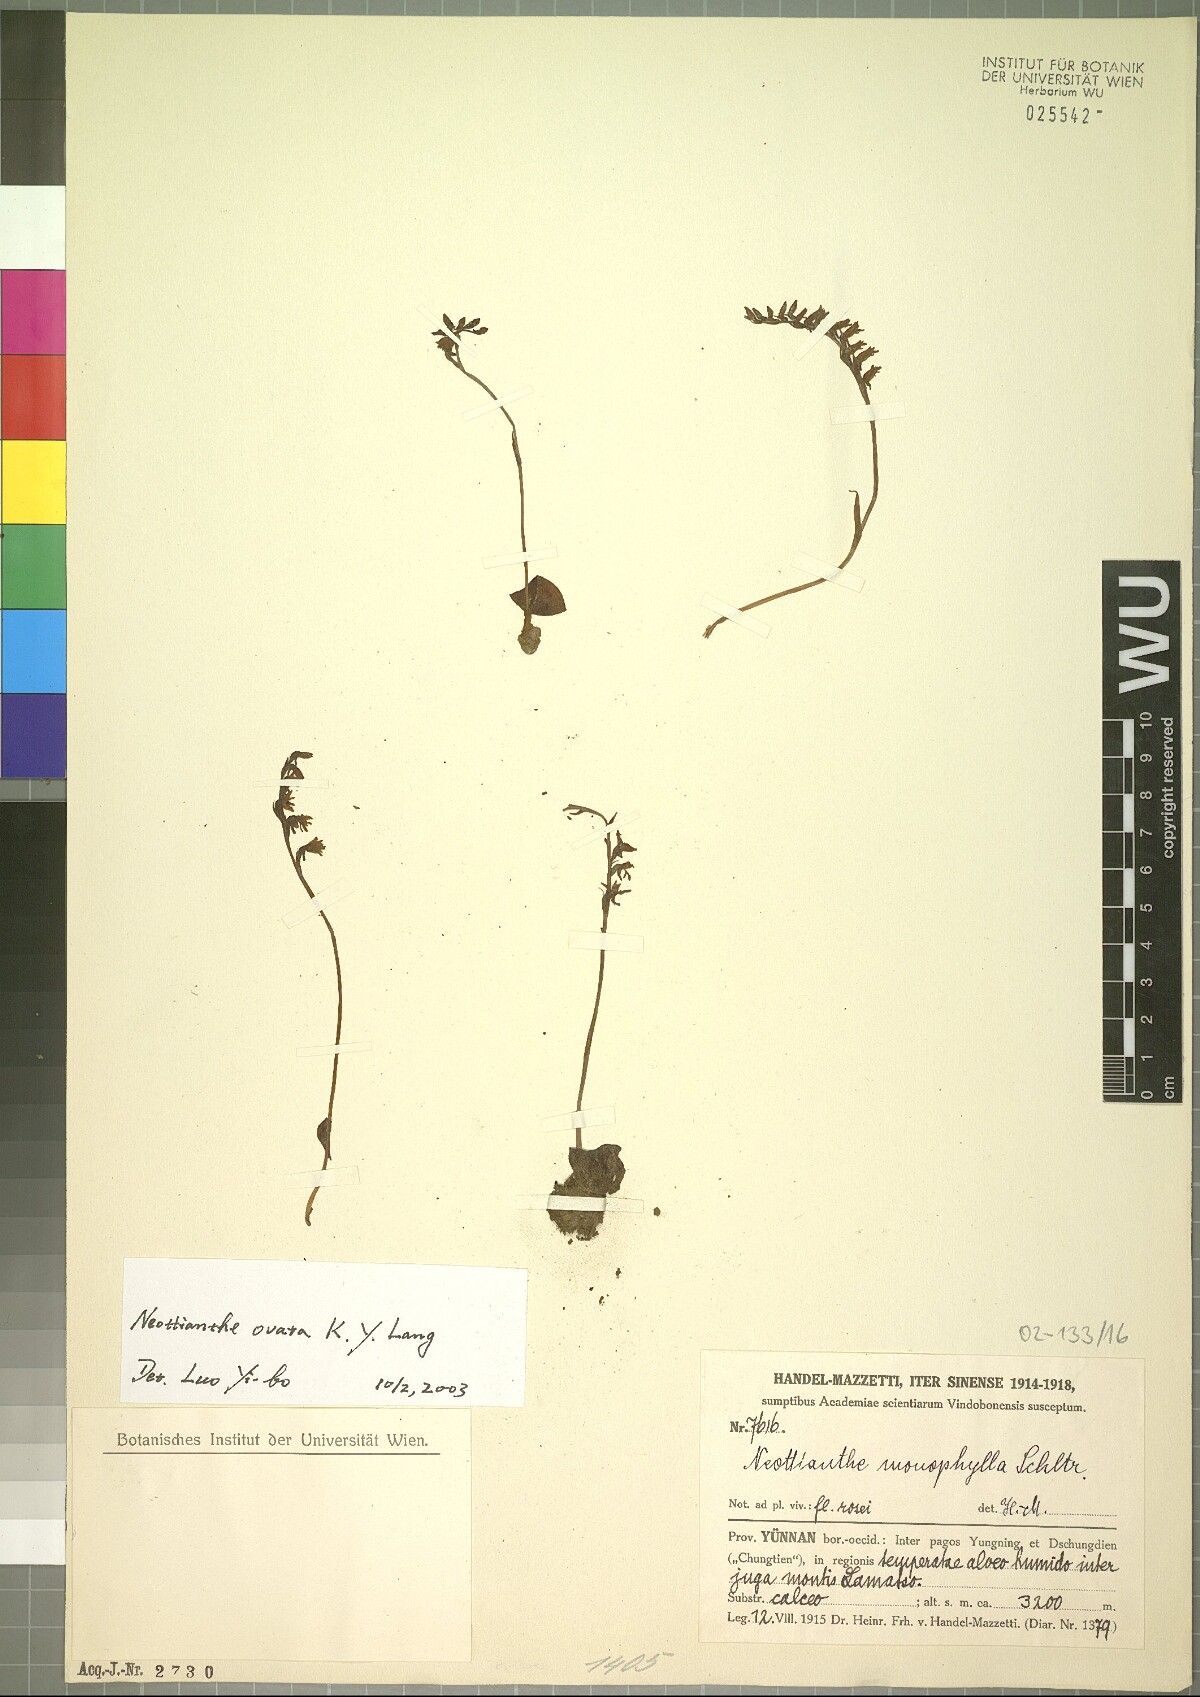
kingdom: Plantae
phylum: Tracheophyta
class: Liliopsida
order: Asparagales
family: Orchidaceae
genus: Hemipilia
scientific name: Hemipilia ovata
